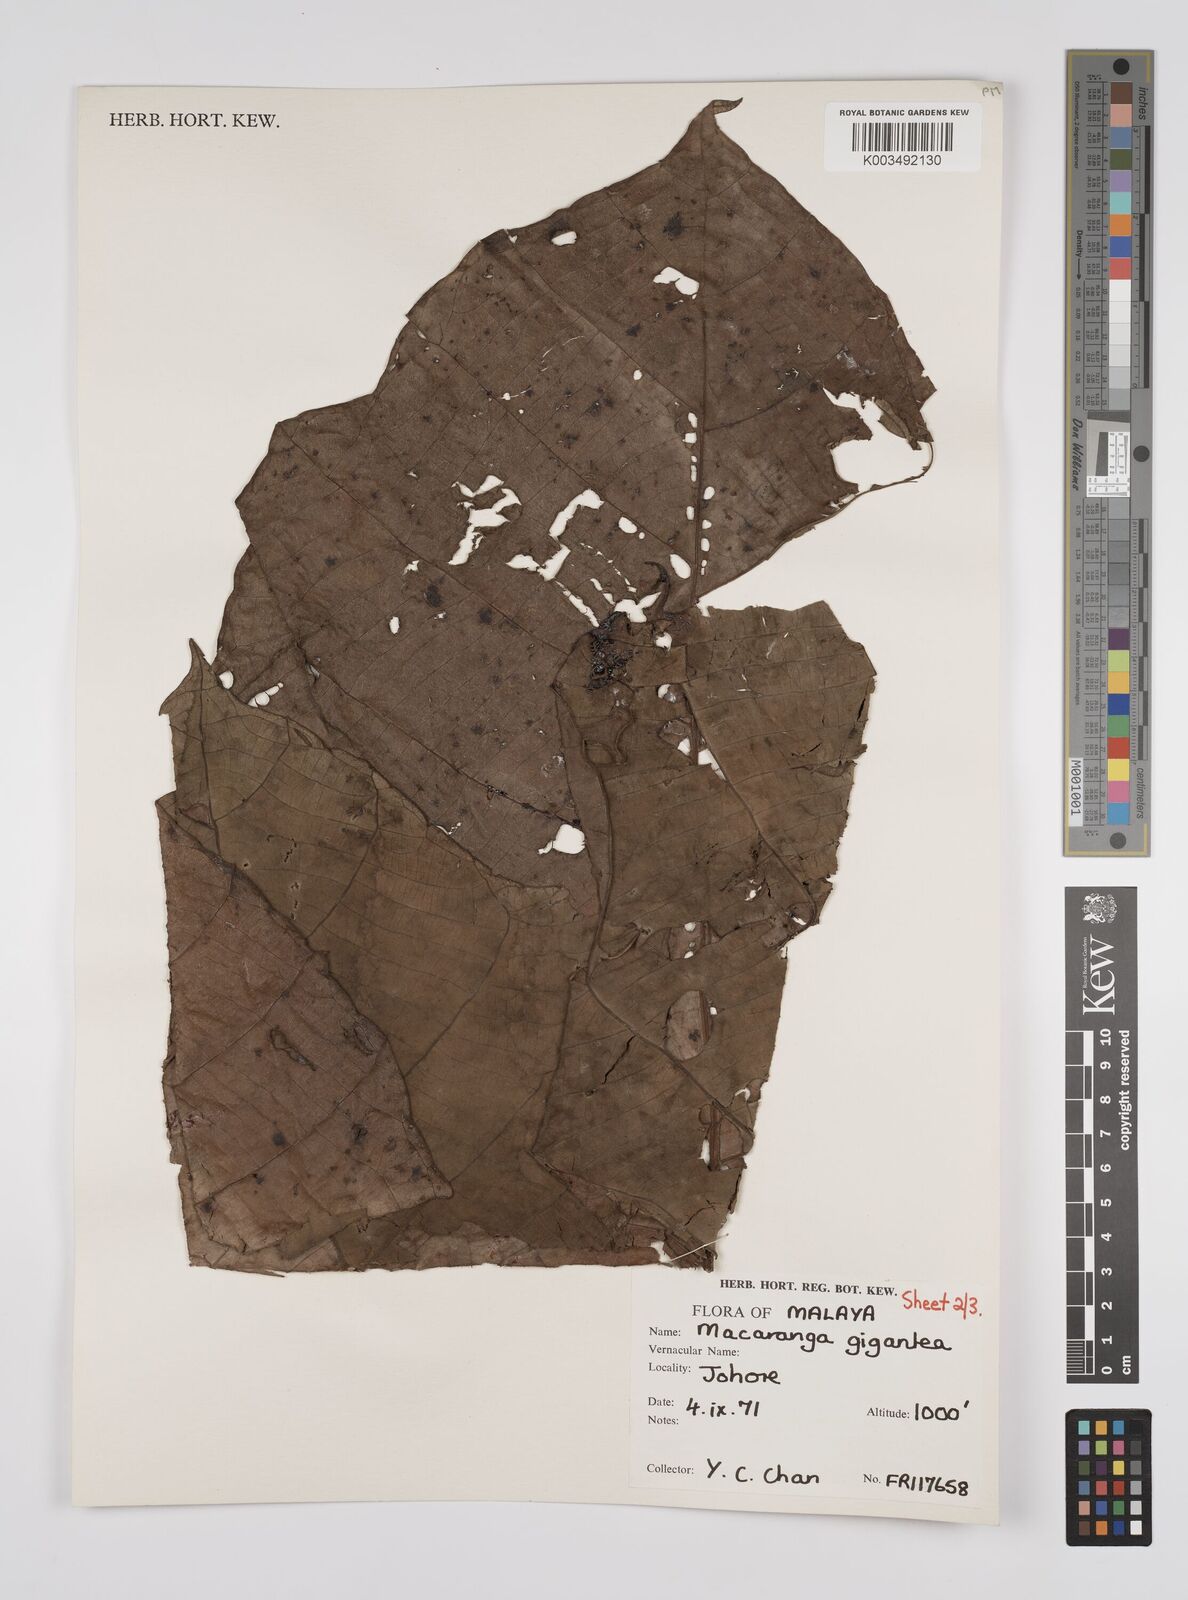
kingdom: Plantae
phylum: Tracheophyta
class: Magnoliopsida
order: Malpighiales
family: Euphorbiaceae
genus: Macaranga
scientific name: Macaranga gigantea
